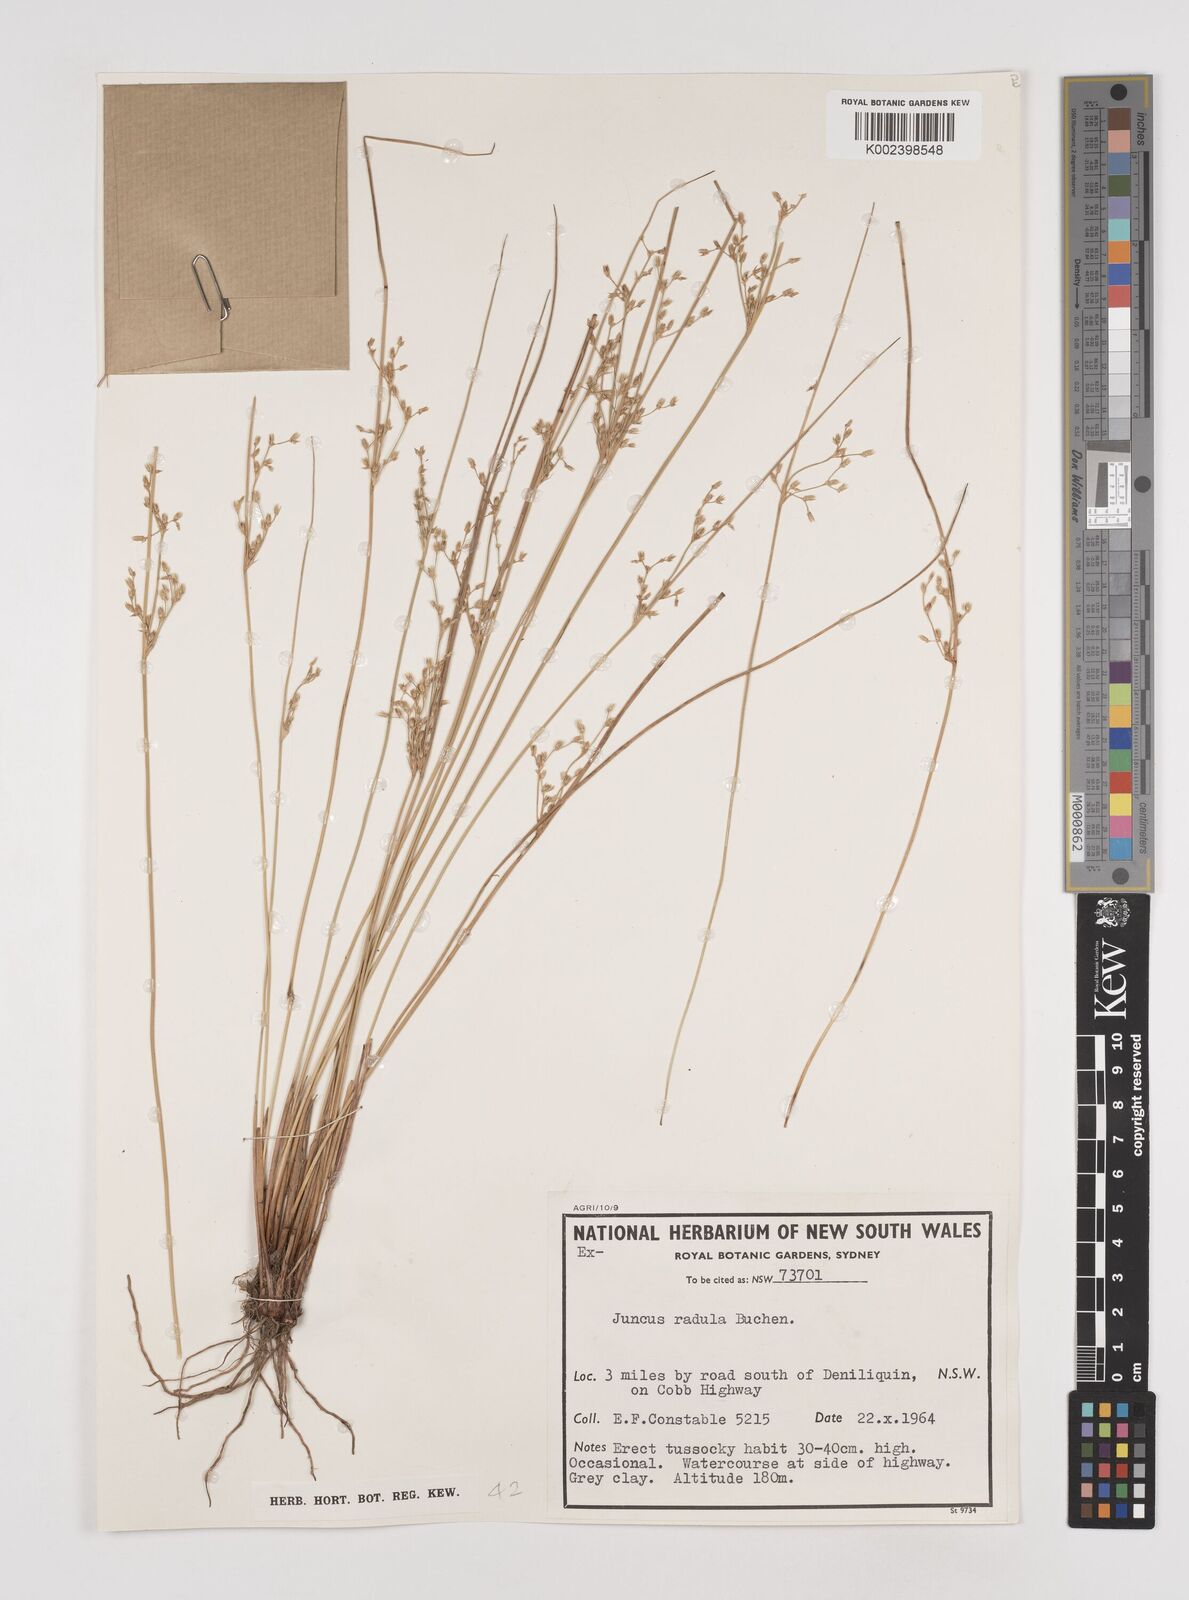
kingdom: Plantae
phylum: Tracheophyta
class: Liliopsida
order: Poales
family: Juncaceae
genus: Juncus
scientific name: Juncus radula
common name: Hoary rush
